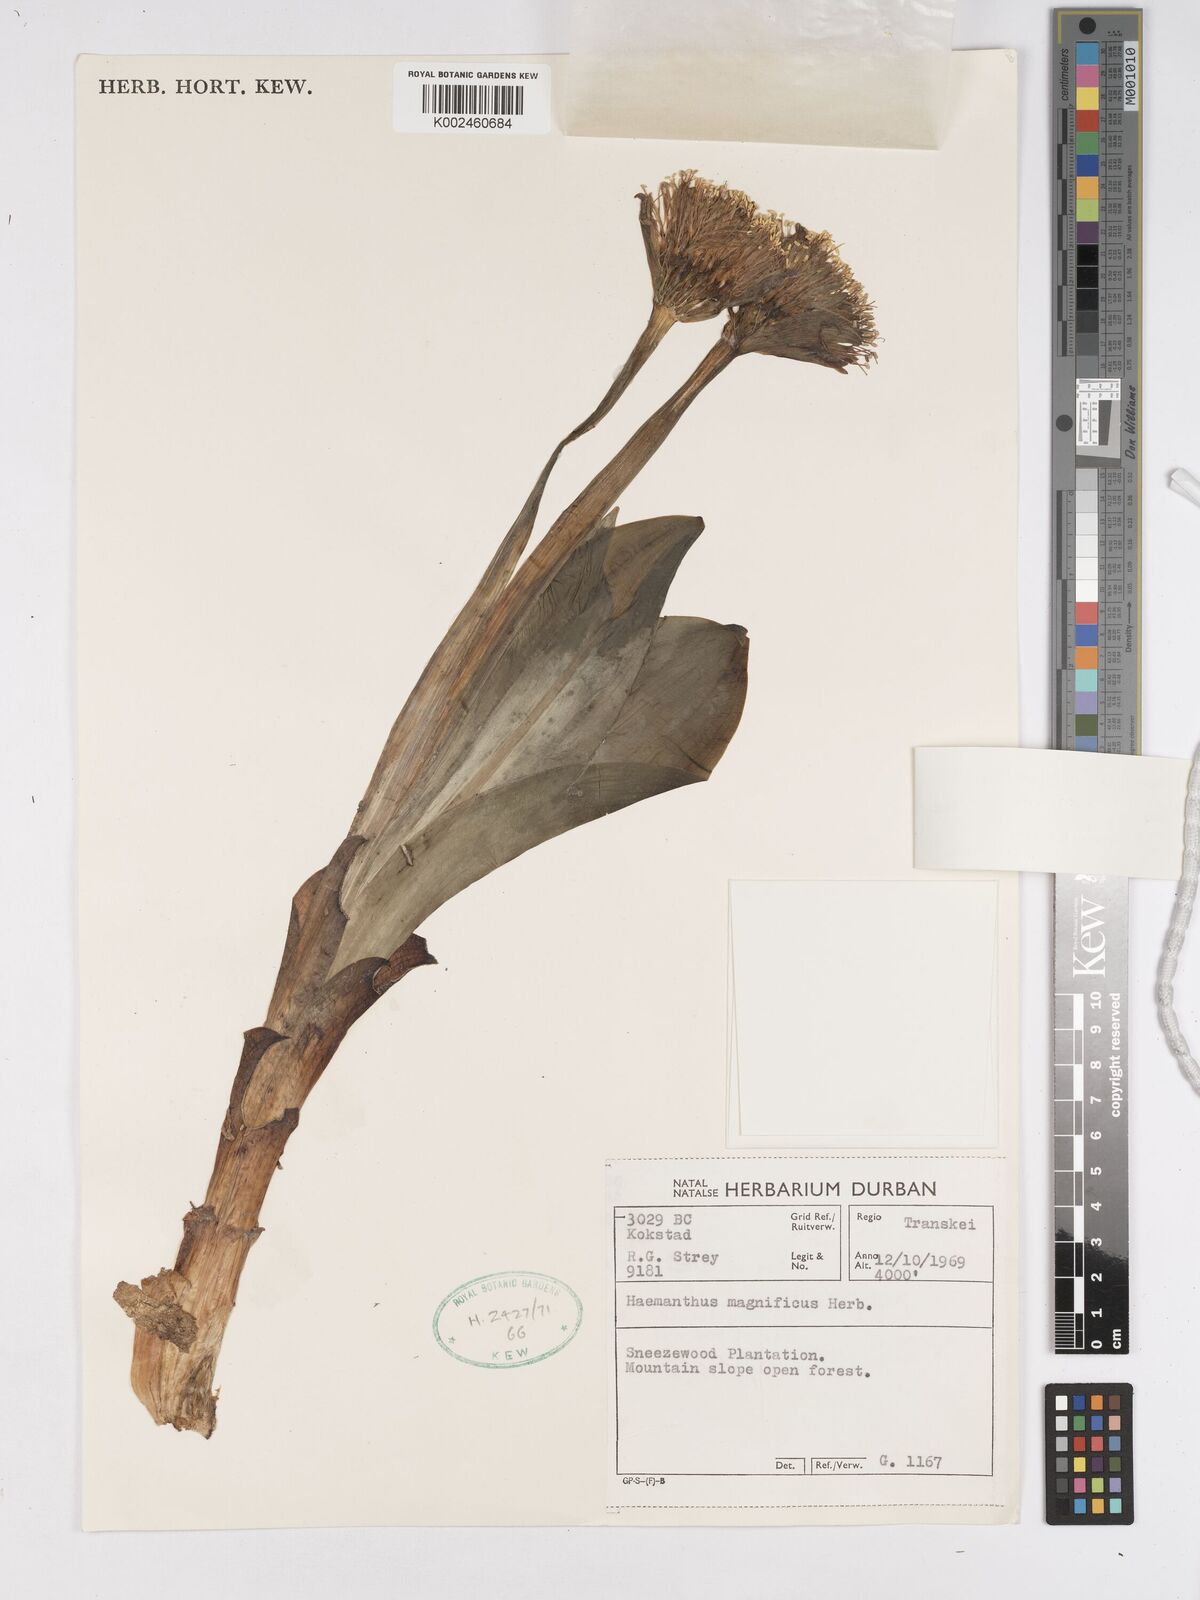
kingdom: Plantae
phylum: Tracheophyta
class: Liliopsida
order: Asparagales
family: Amaryllidaceae
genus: Scadoxus
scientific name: Scadoxus puniceus
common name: Royal-paintbrush
